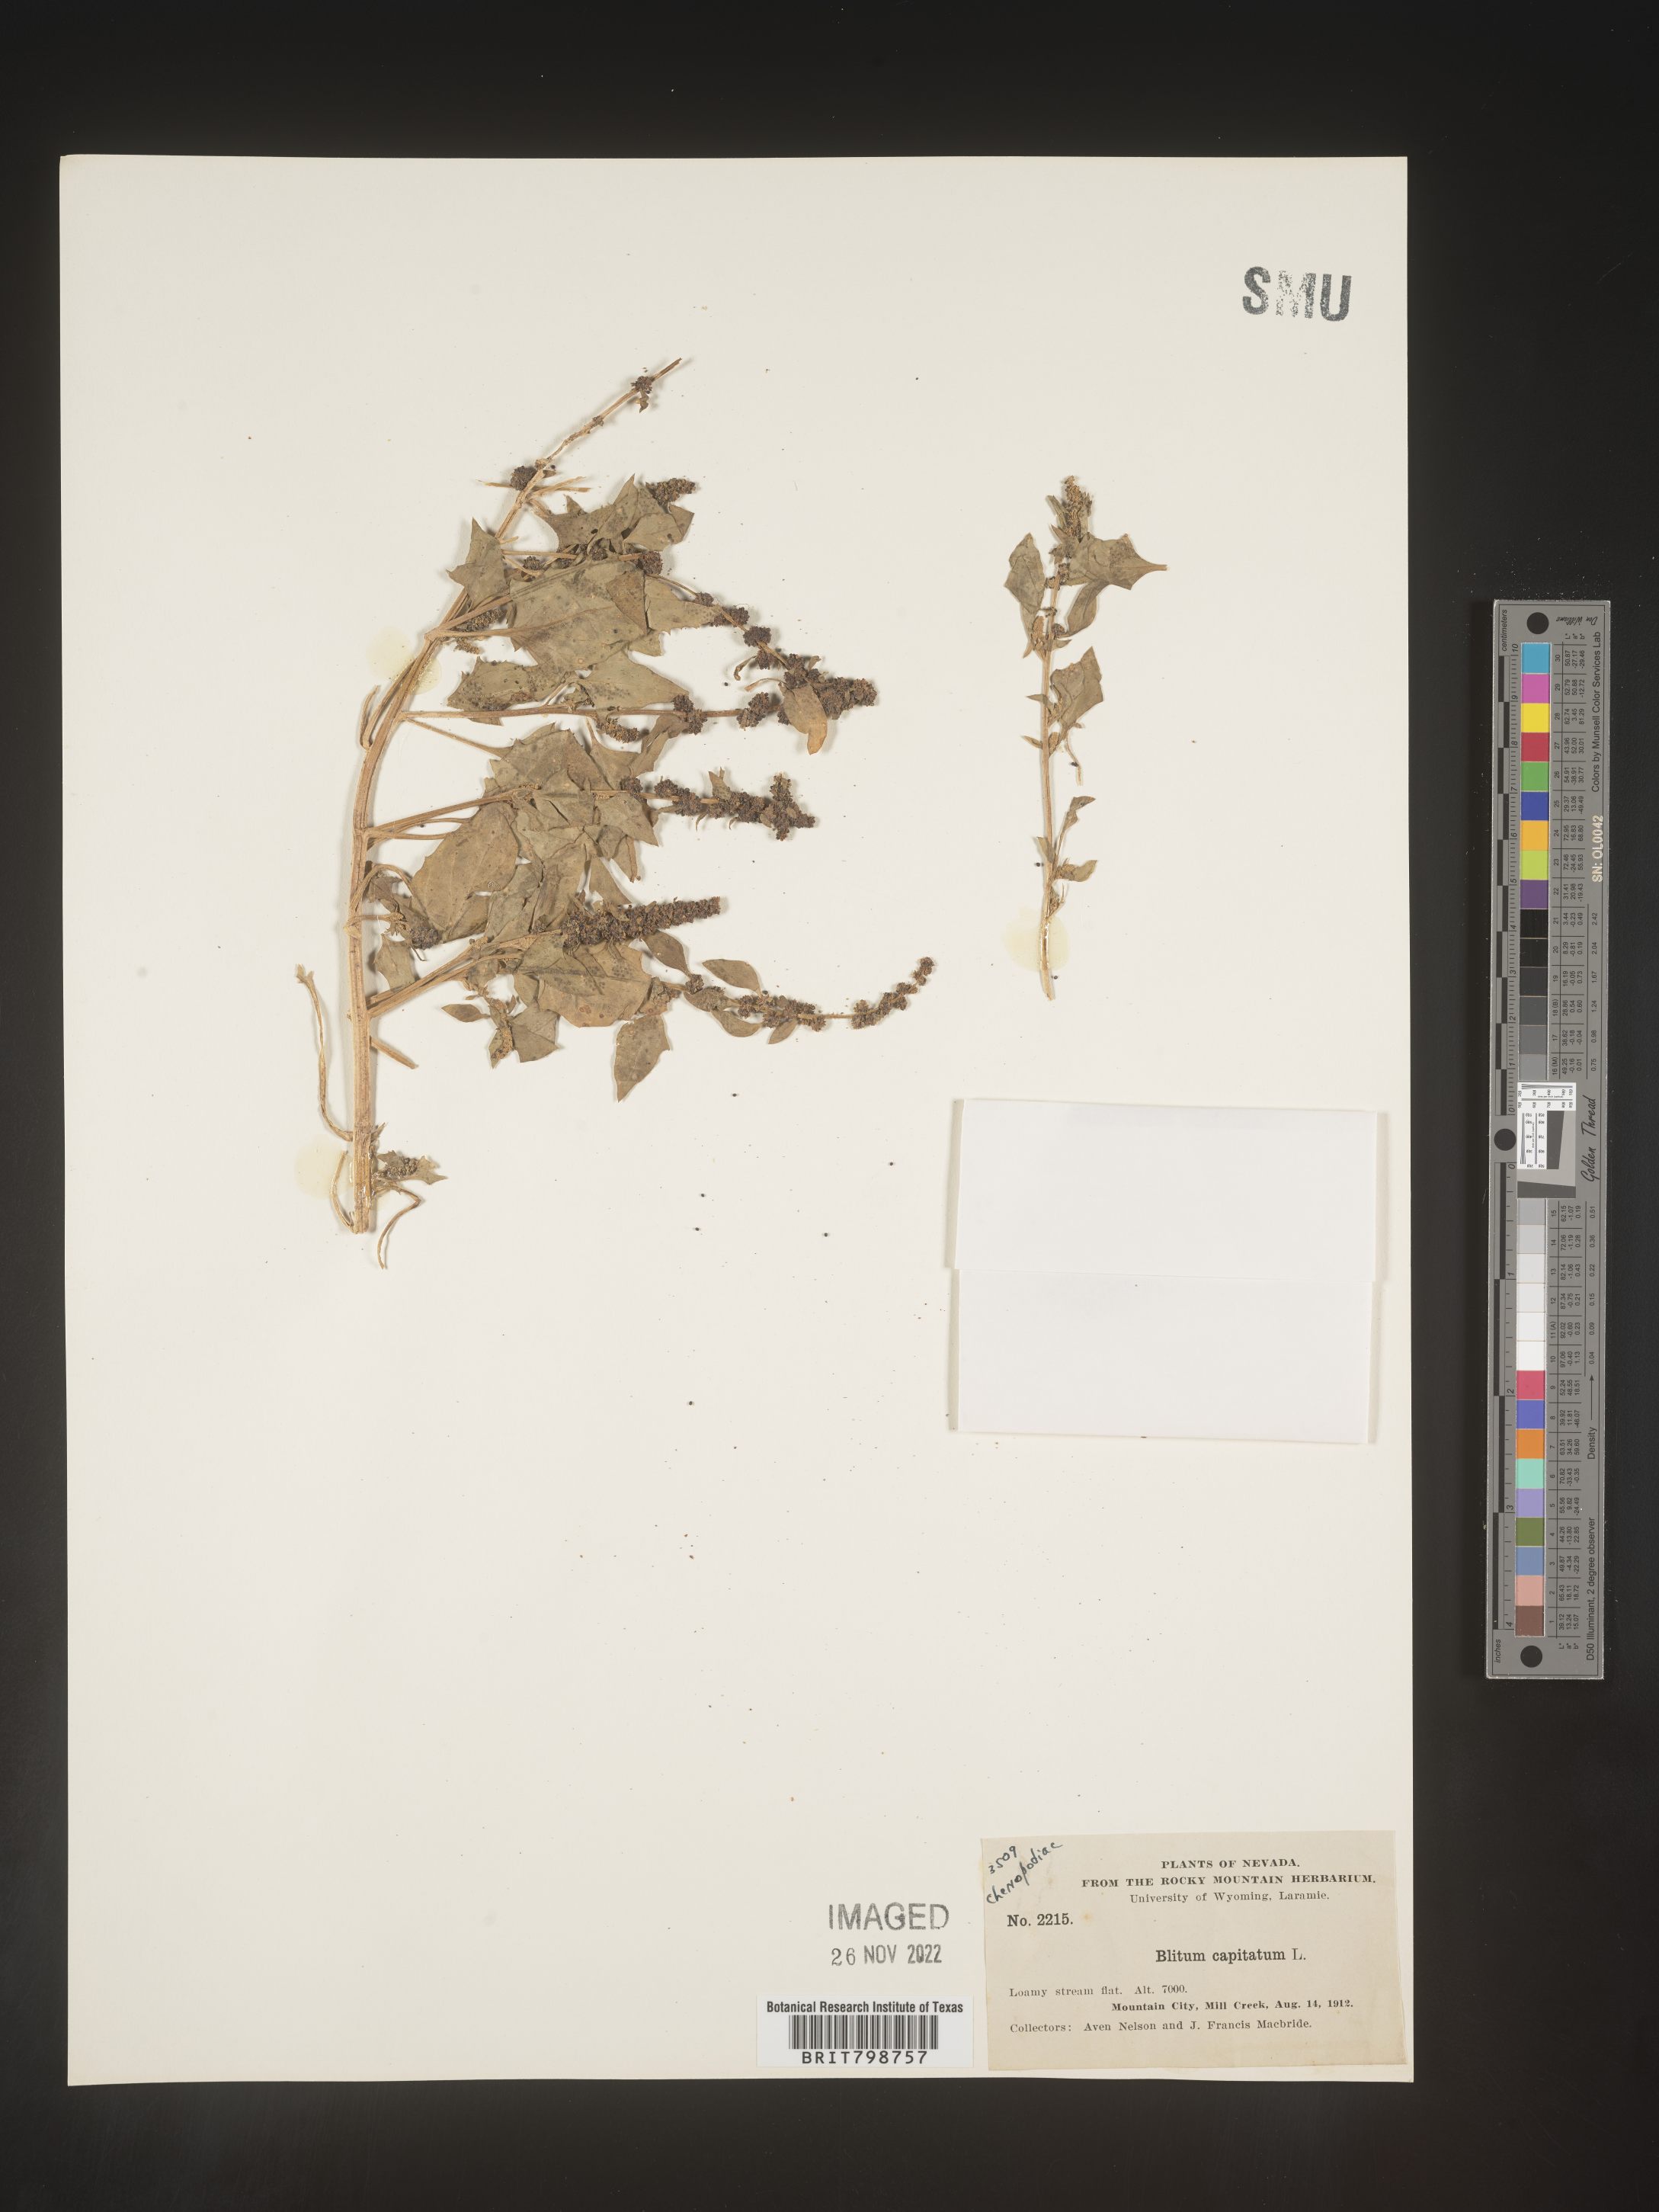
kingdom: Plantae
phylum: Tracheophyta
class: Magnoliopsida
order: Caryophyllales
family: Amaranthaceae
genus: Blitum
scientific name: Blitum capitatum
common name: Strawberry-blight
